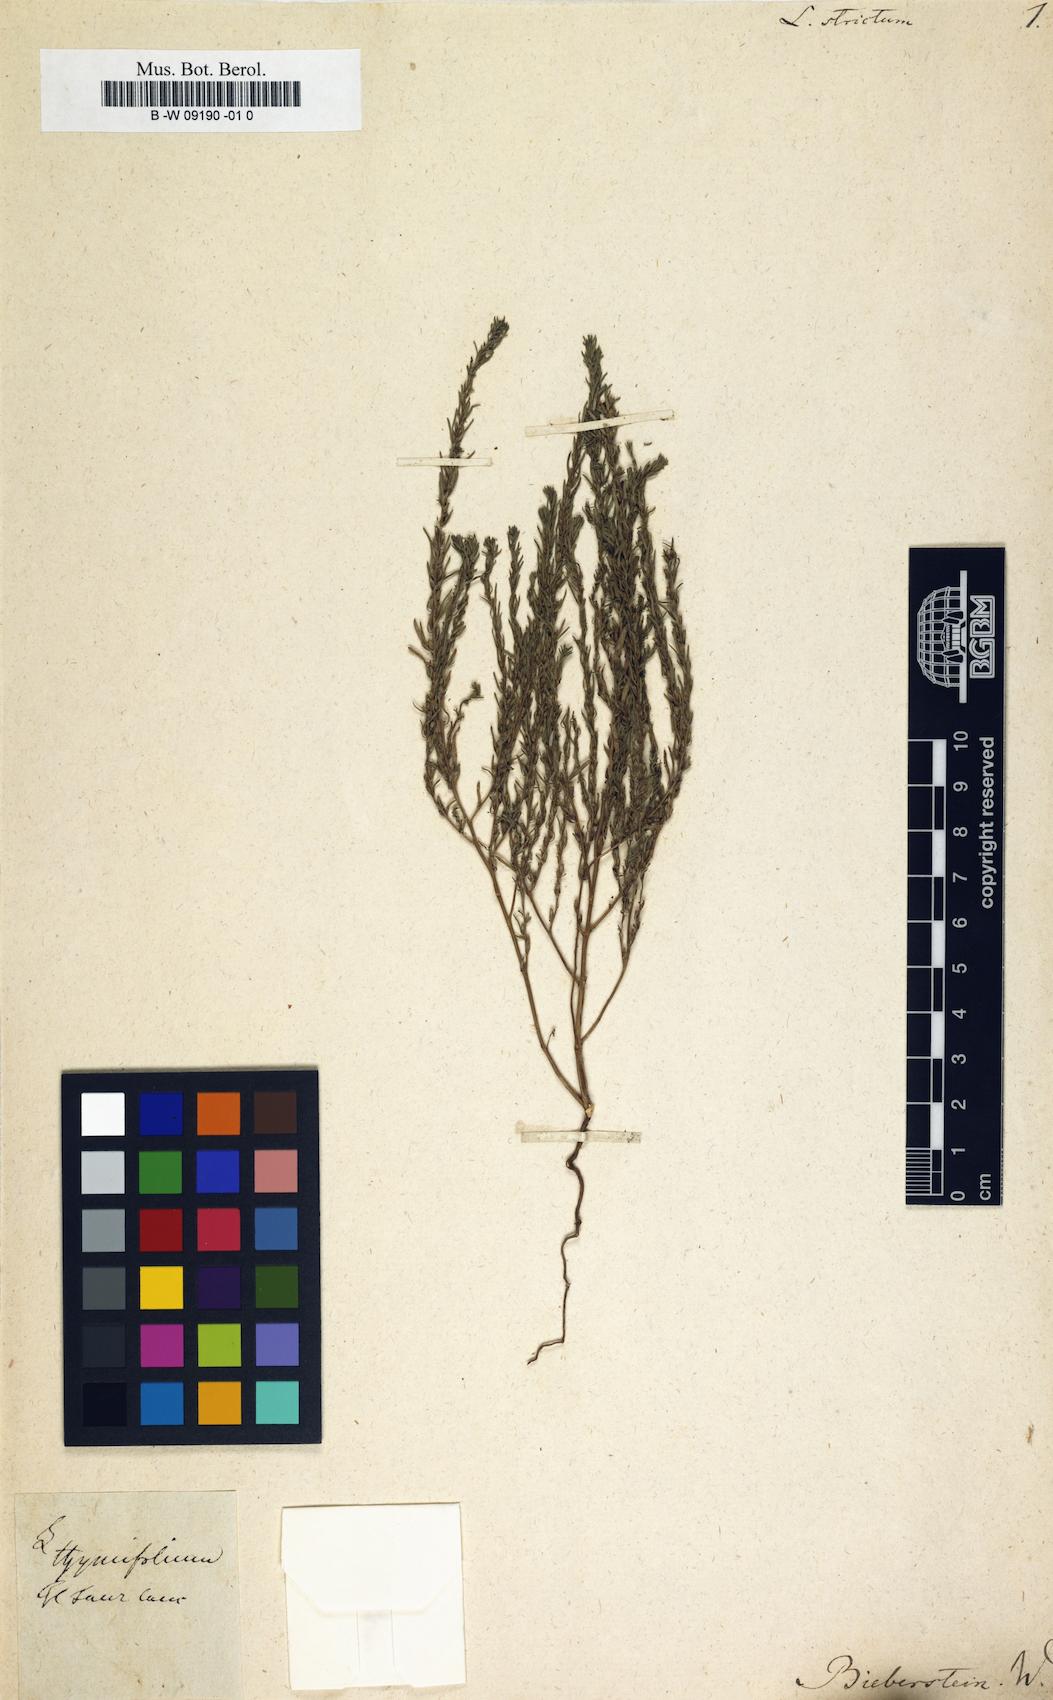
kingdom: Plantae
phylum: Tracheophyta
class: Magnoliopsida
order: Myrtales
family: Lythraceae
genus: Lythrum
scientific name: Lythrum thymifolia
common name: Thymeleaf loosestrife
